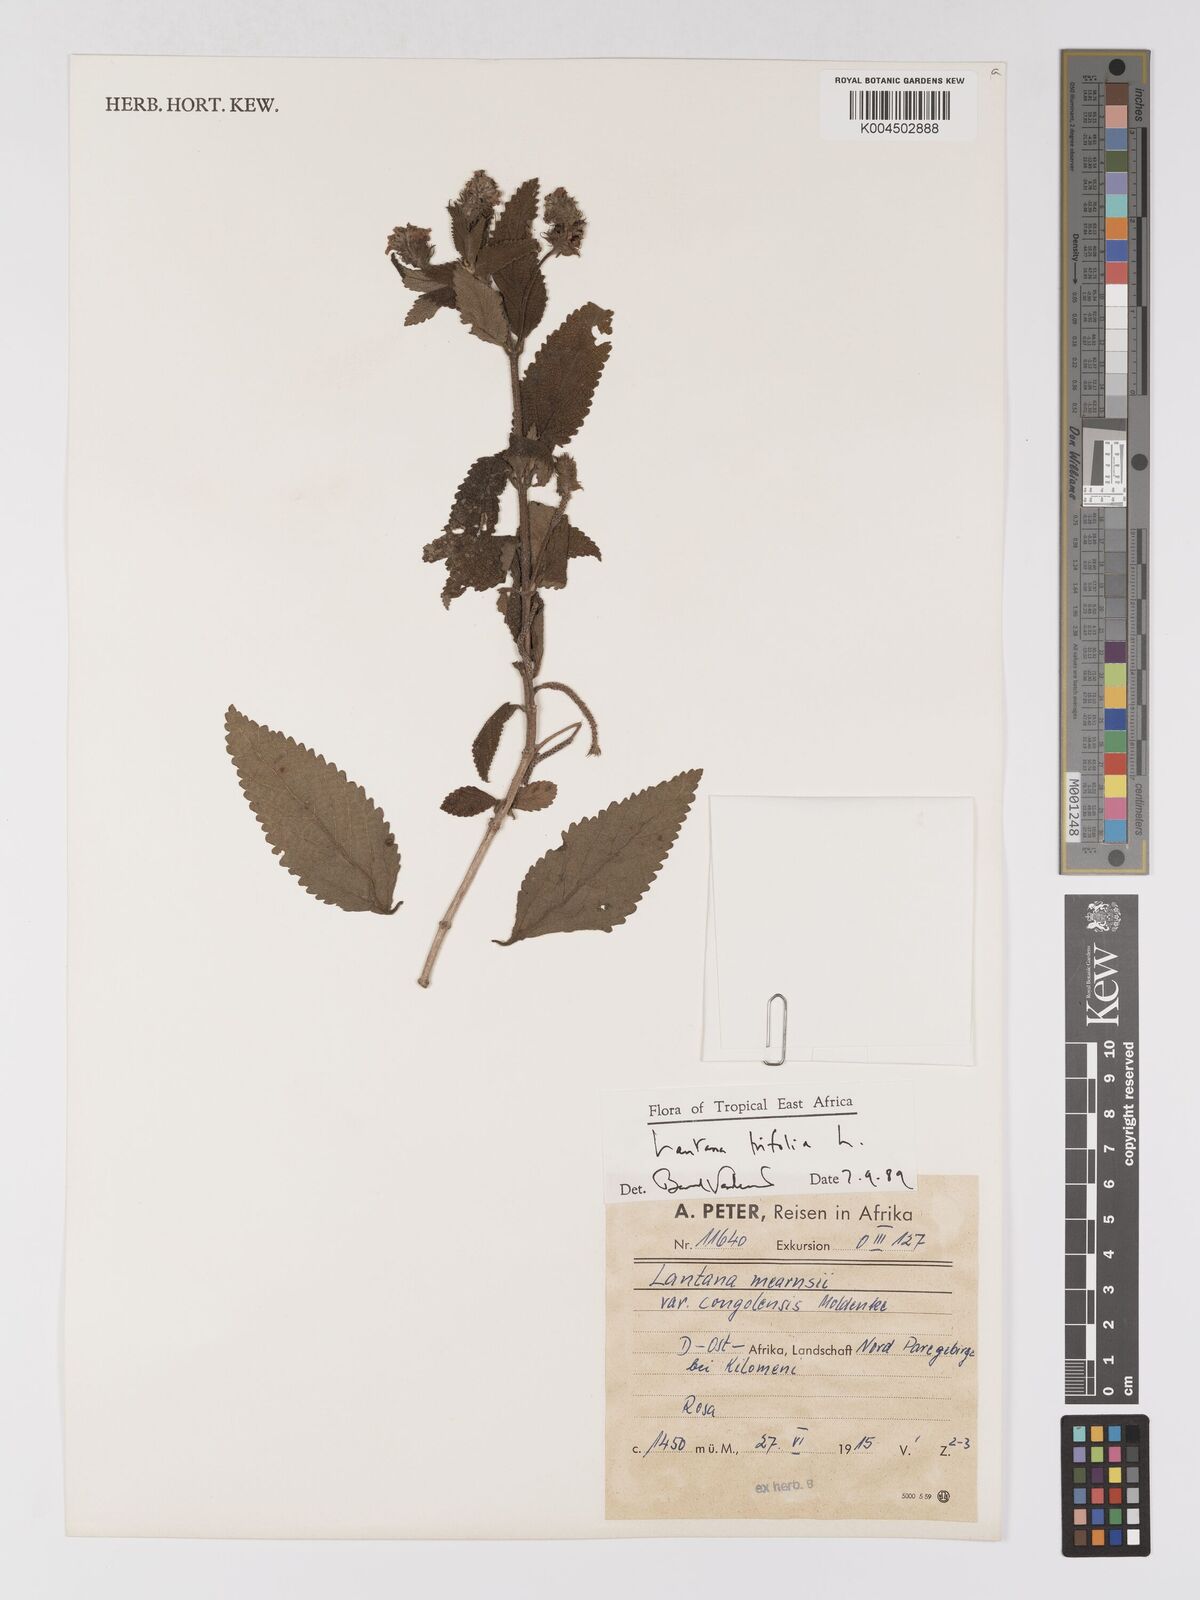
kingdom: Plantae
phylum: Tracheophyta
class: Magnoliopsida
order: Lamiales
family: Verbenaceae
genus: Lantana
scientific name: Lantana trifolia
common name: Sweet-sage
